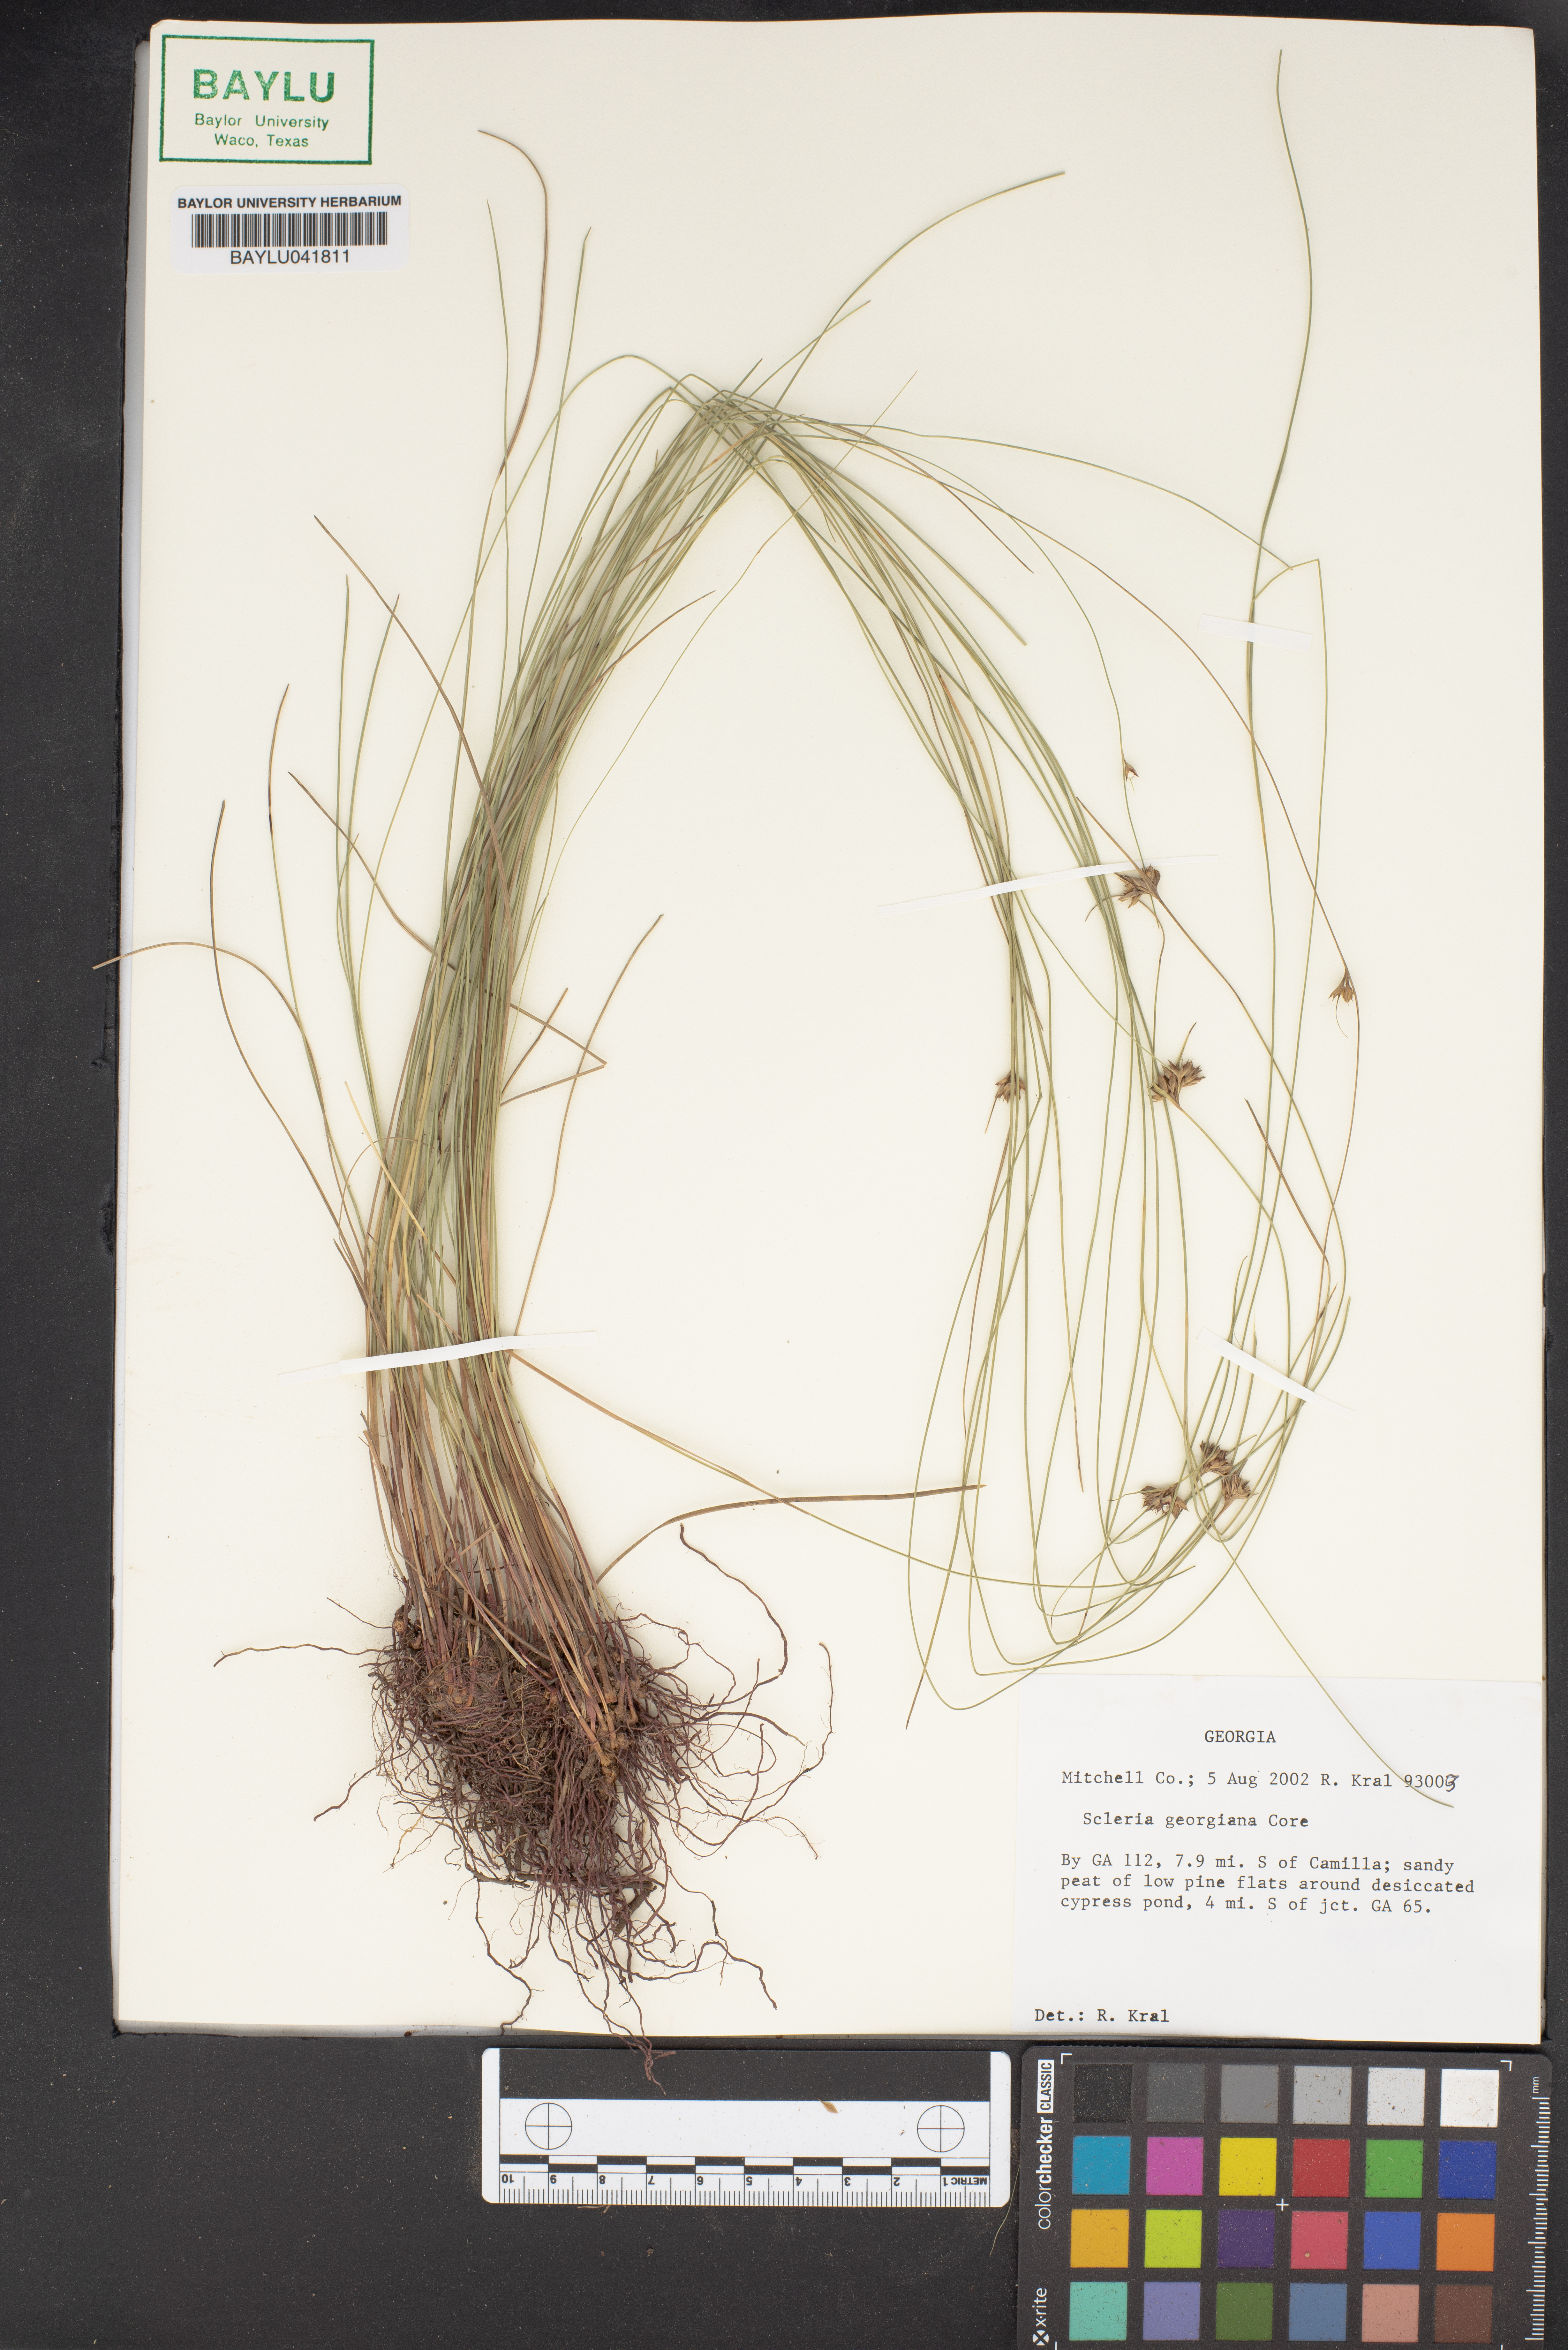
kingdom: Plantae
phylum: Tracheophyta
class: Liliopsida
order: Poales
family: Cyperaceae
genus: Scleria
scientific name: Scleria georgiana
